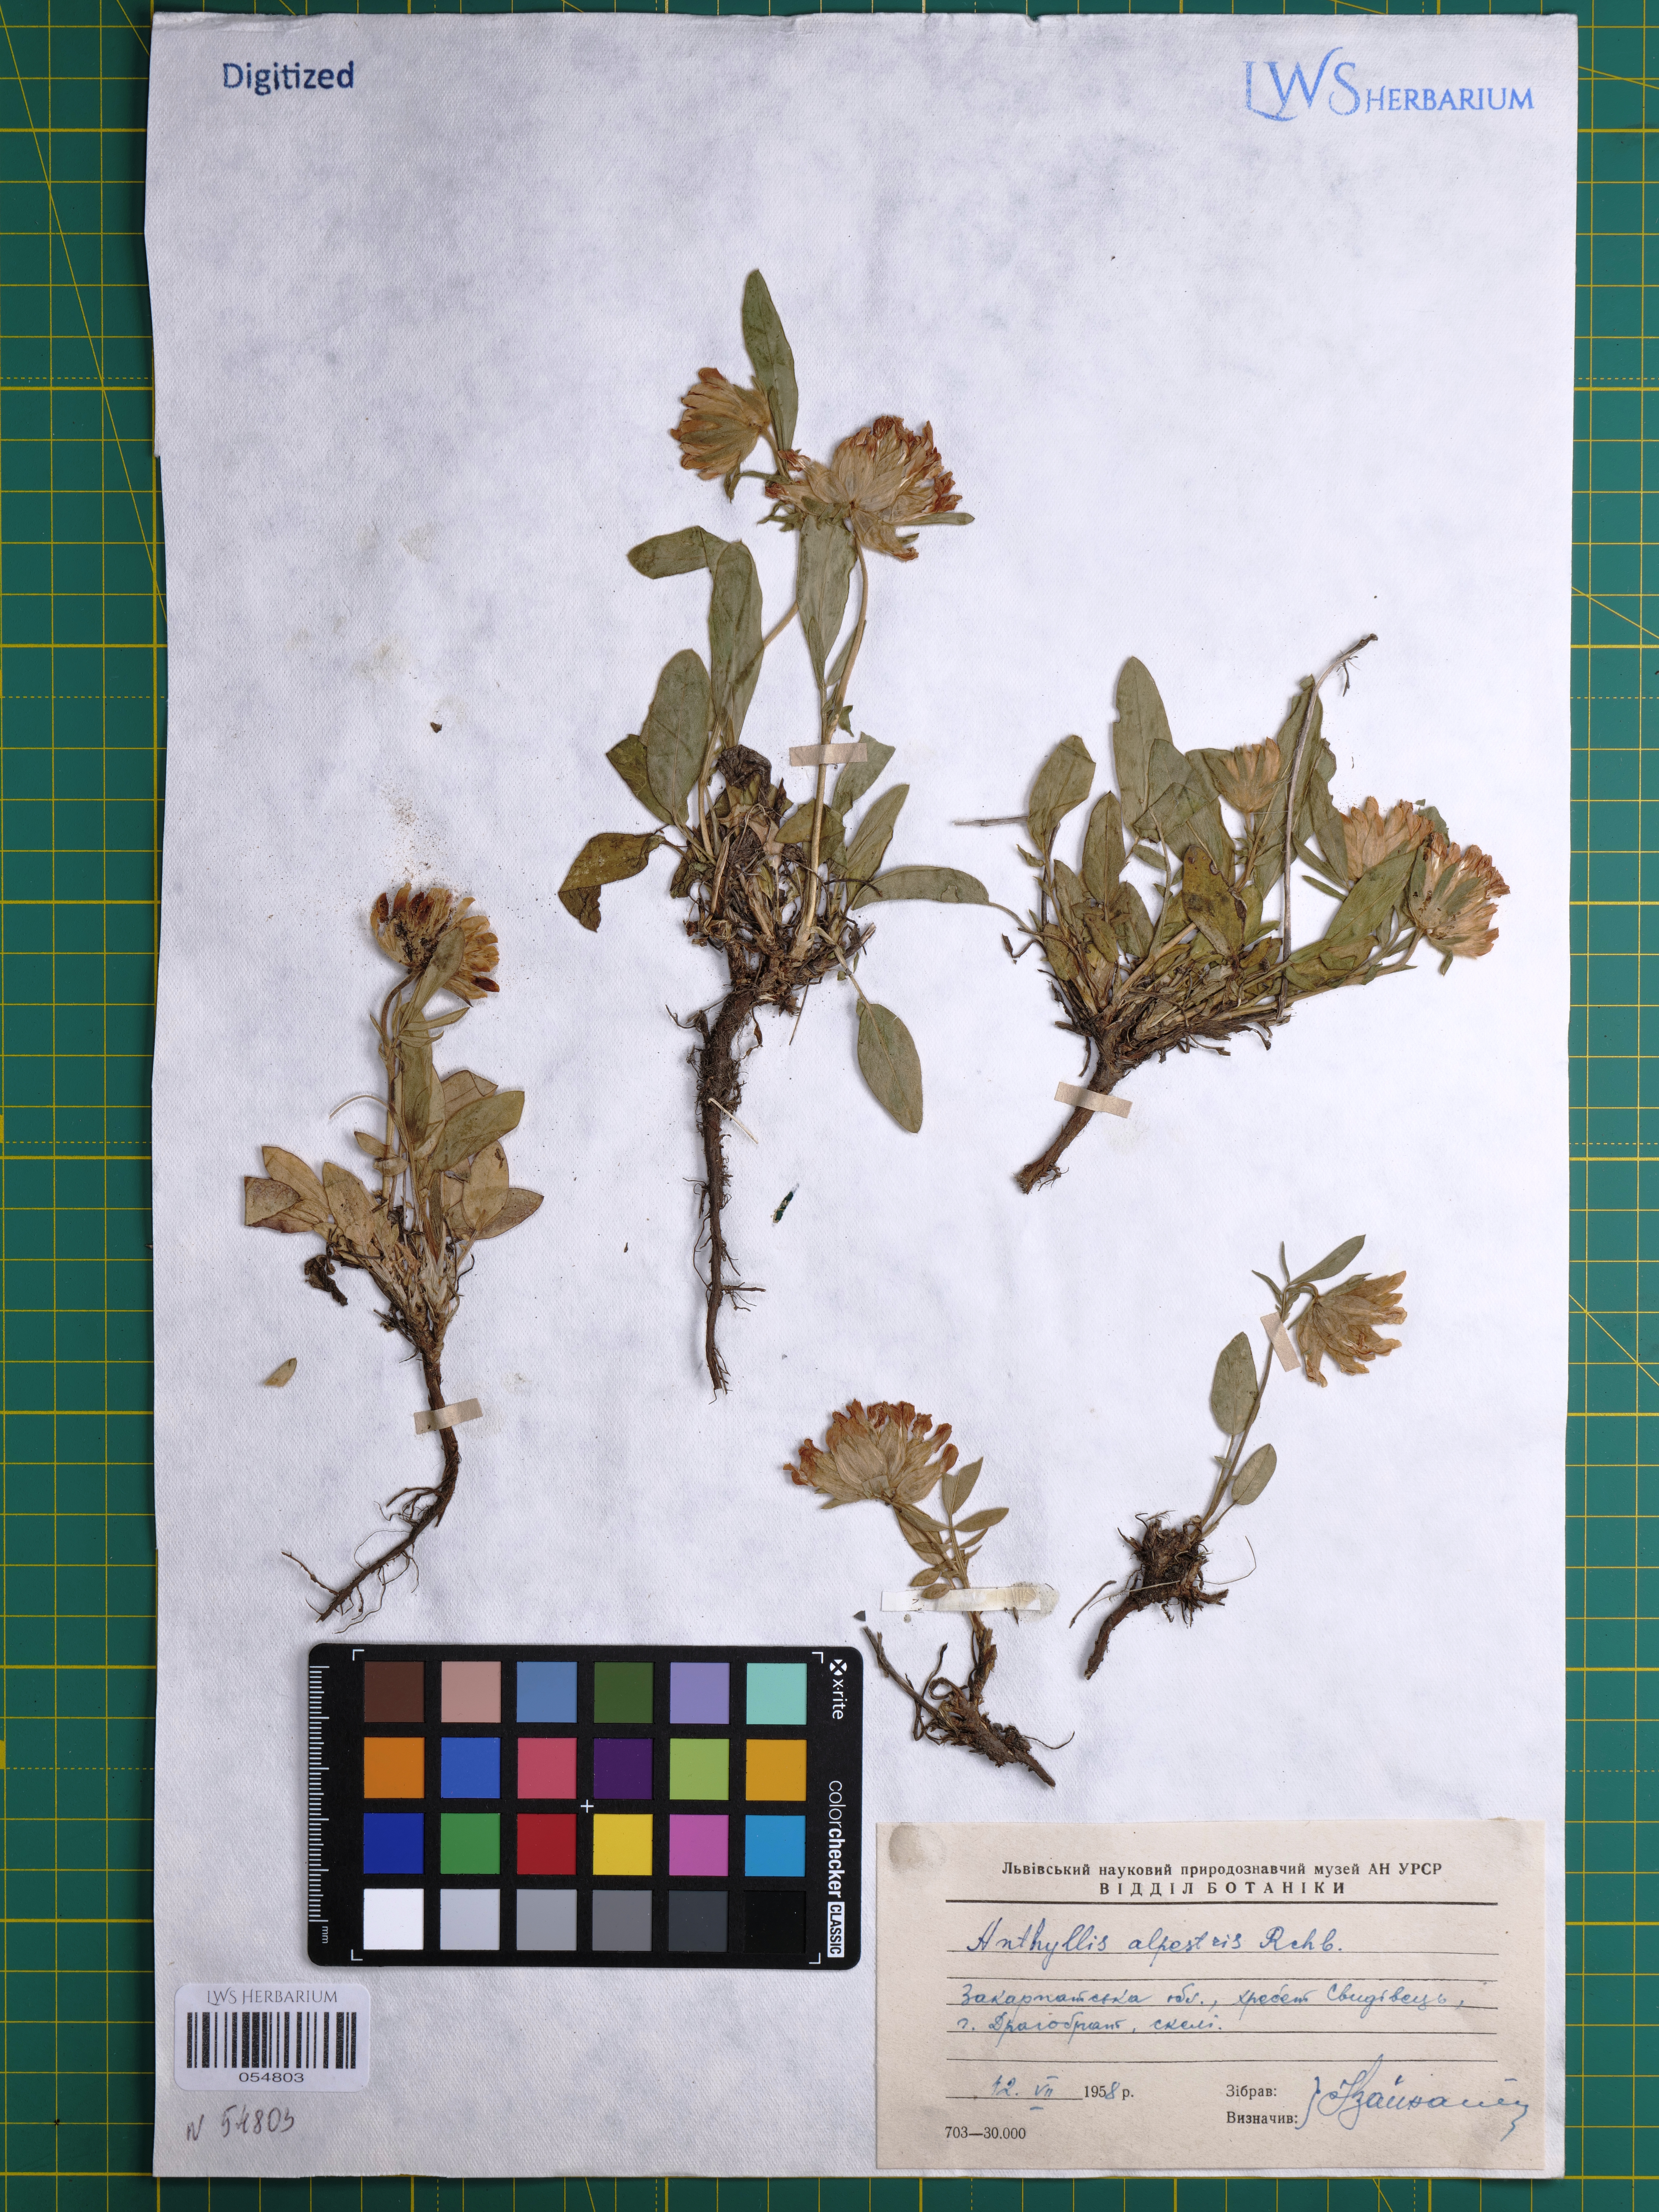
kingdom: Plantae
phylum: Tracheophyta
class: Magnoliopsida
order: Fabales
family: Fabaceae
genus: Anthyllis
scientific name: Anthyllis vulneraria
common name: Kidney vetch
